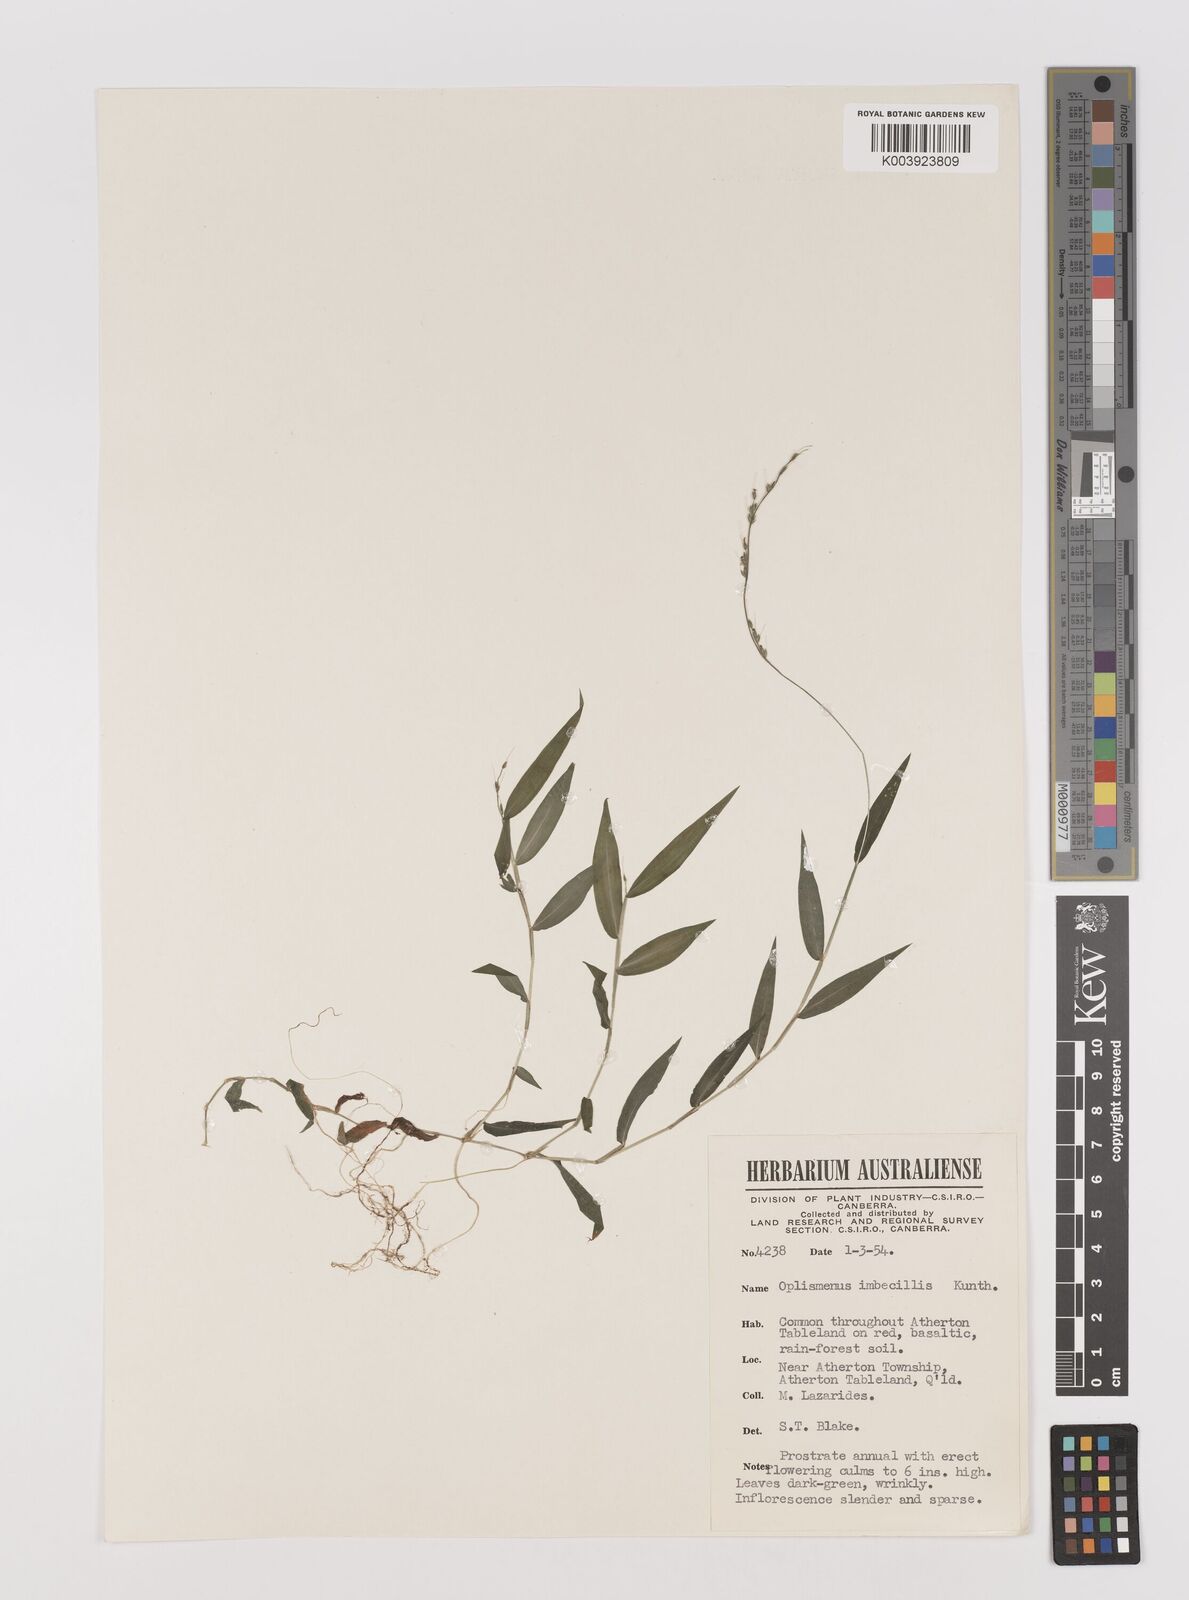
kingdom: Plantae
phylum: Tracheophyta
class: Liliopsida
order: Poales
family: Poaceae
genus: Oplismenus
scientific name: Oplismenus hirtellus
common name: Basketgrass
